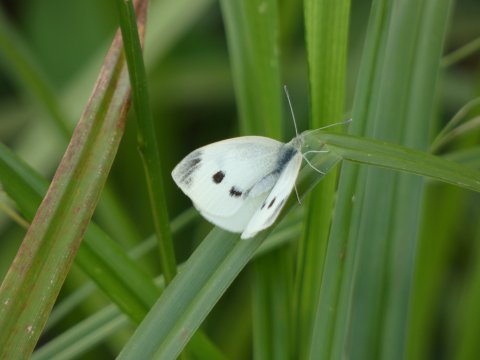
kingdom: Animalia
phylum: Arthropoda
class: Insecta
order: Lepidoptera
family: Pieridae
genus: Pieris
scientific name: Pieris rapae
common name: Cabbage White
